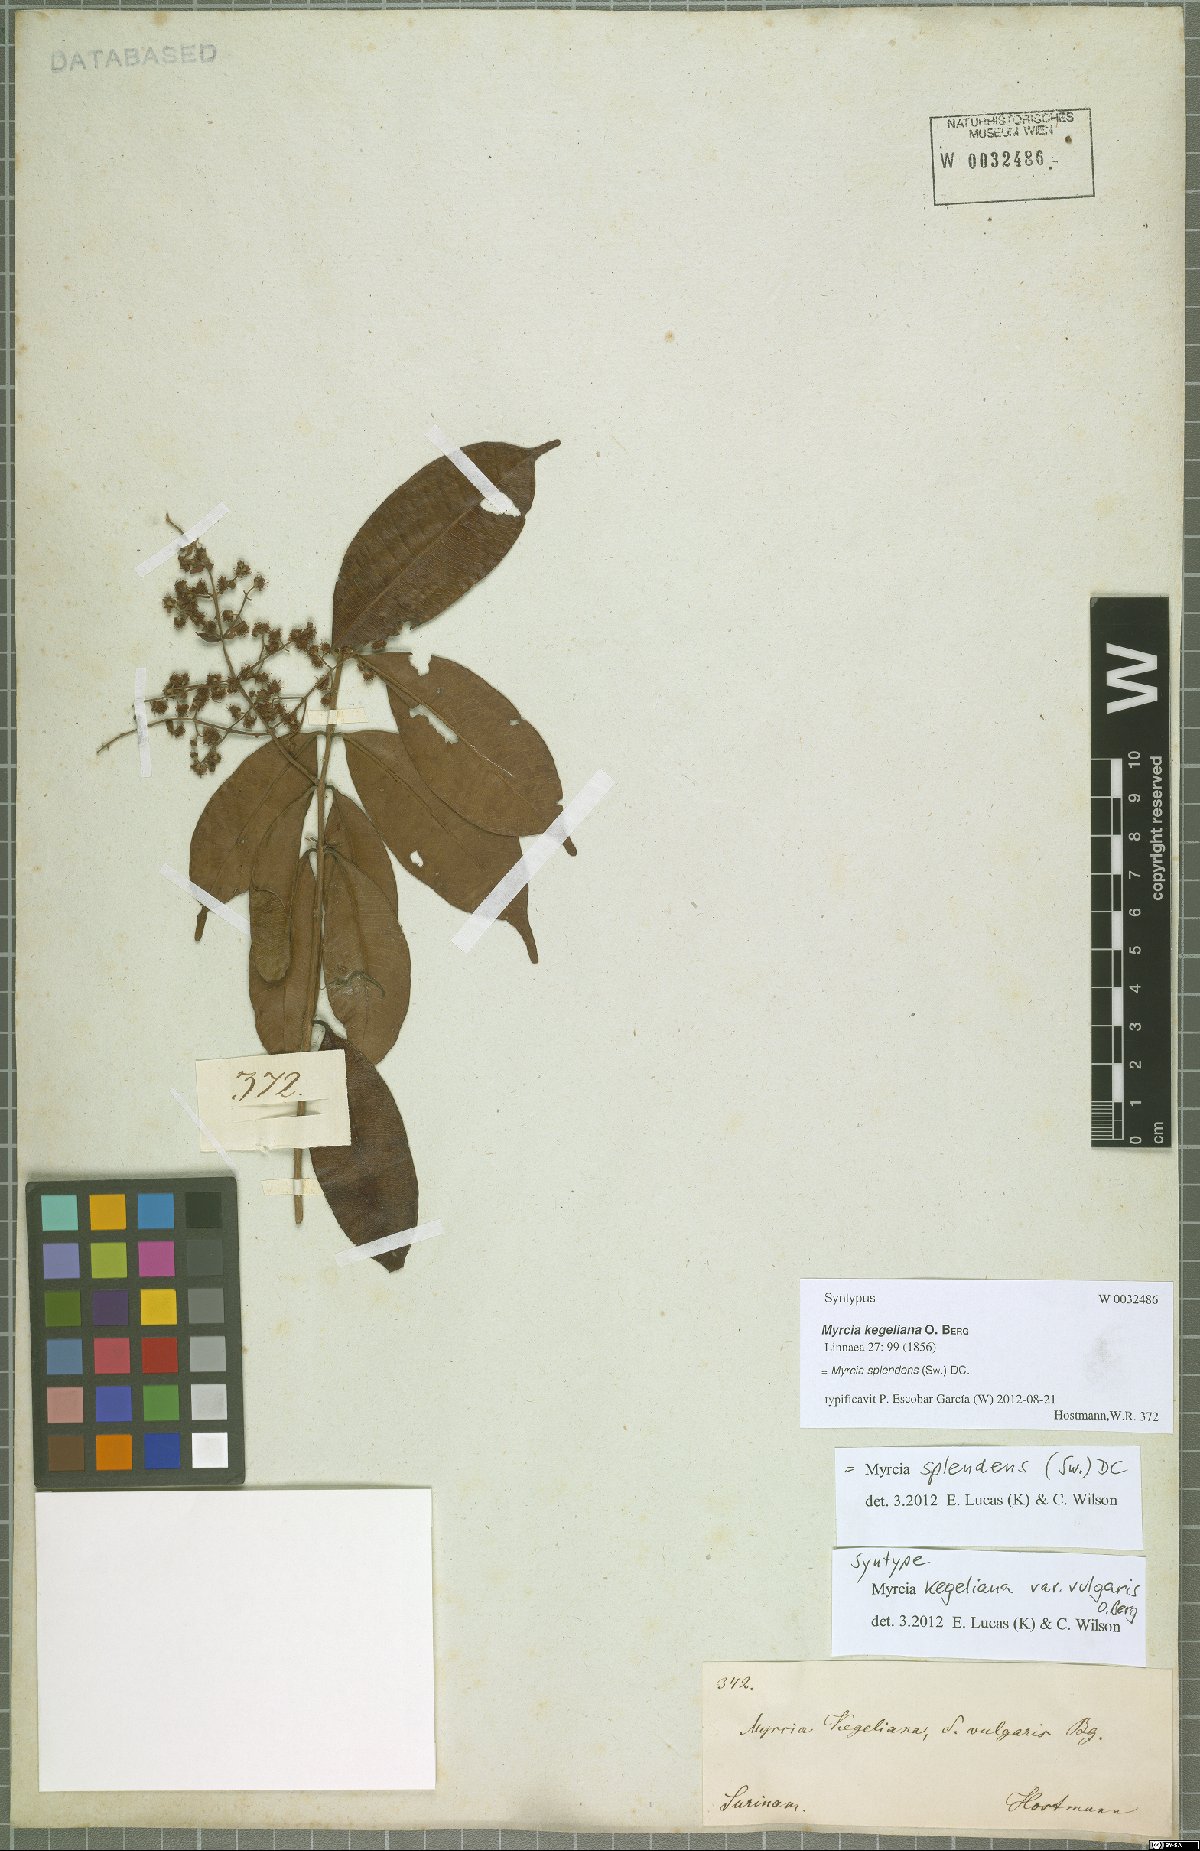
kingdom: Plantae
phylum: Tracheophyta
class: Magnoliopsida
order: Myrtales
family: Myrtaceae
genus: Myrcia
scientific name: Myrcia splendens
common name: Surinam cherry
